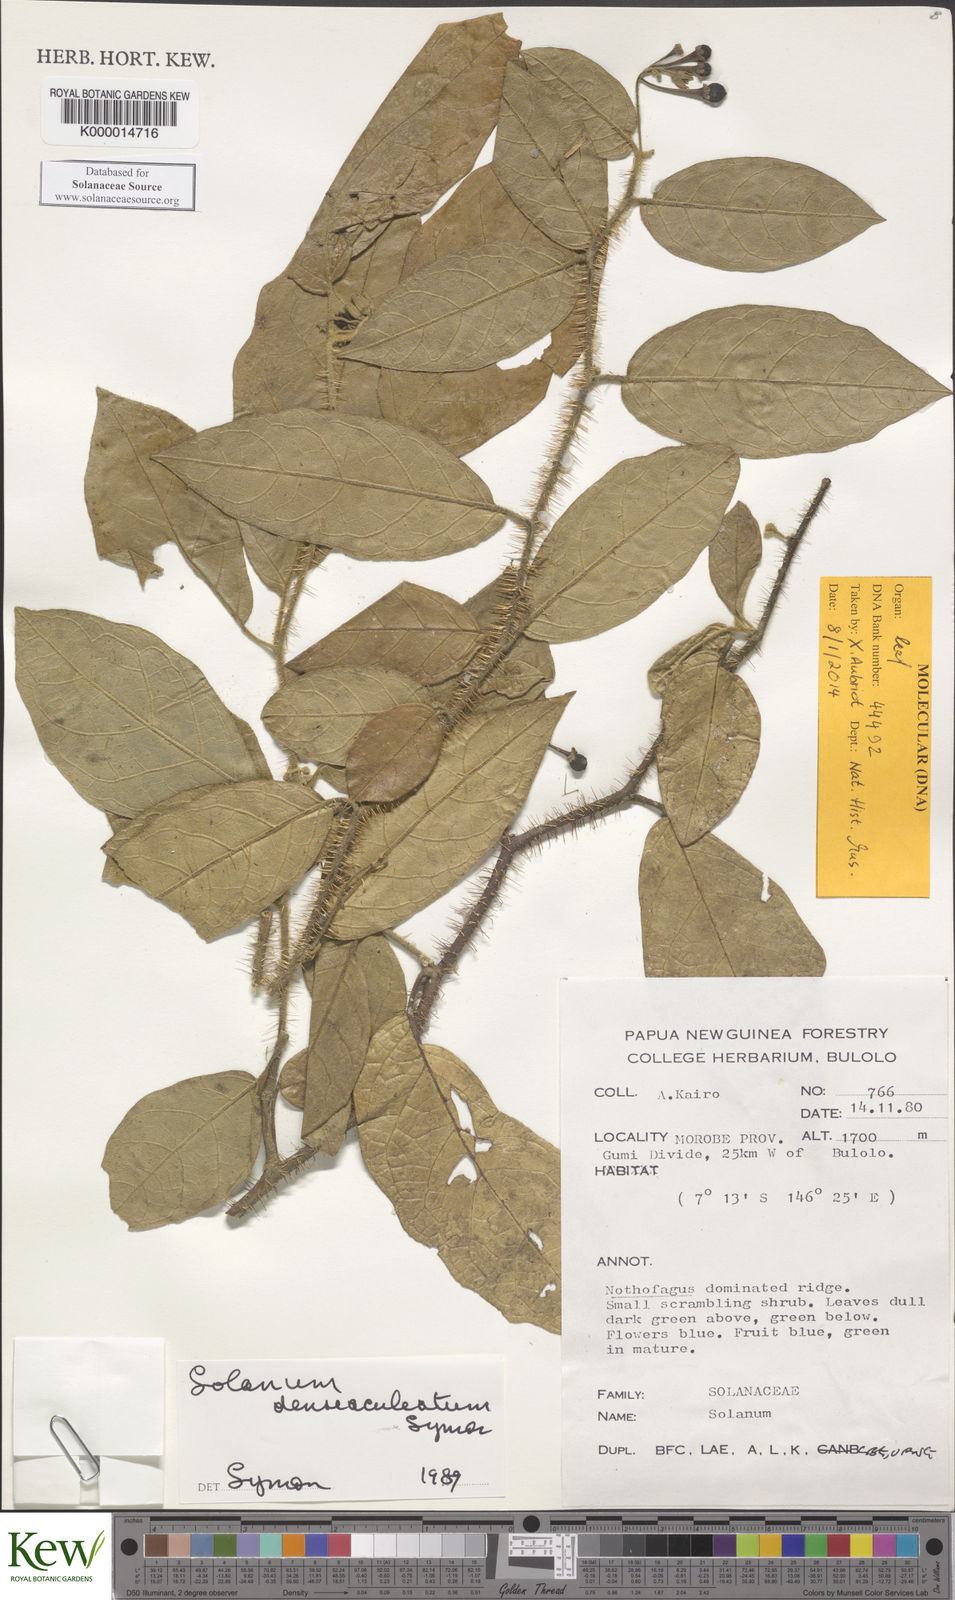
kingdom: Plantae
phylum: Tracheophyta
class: Magnoliopsida
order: Solanales
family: Solanaceae
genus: Solanum
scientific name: Solanum denseaculeatum
